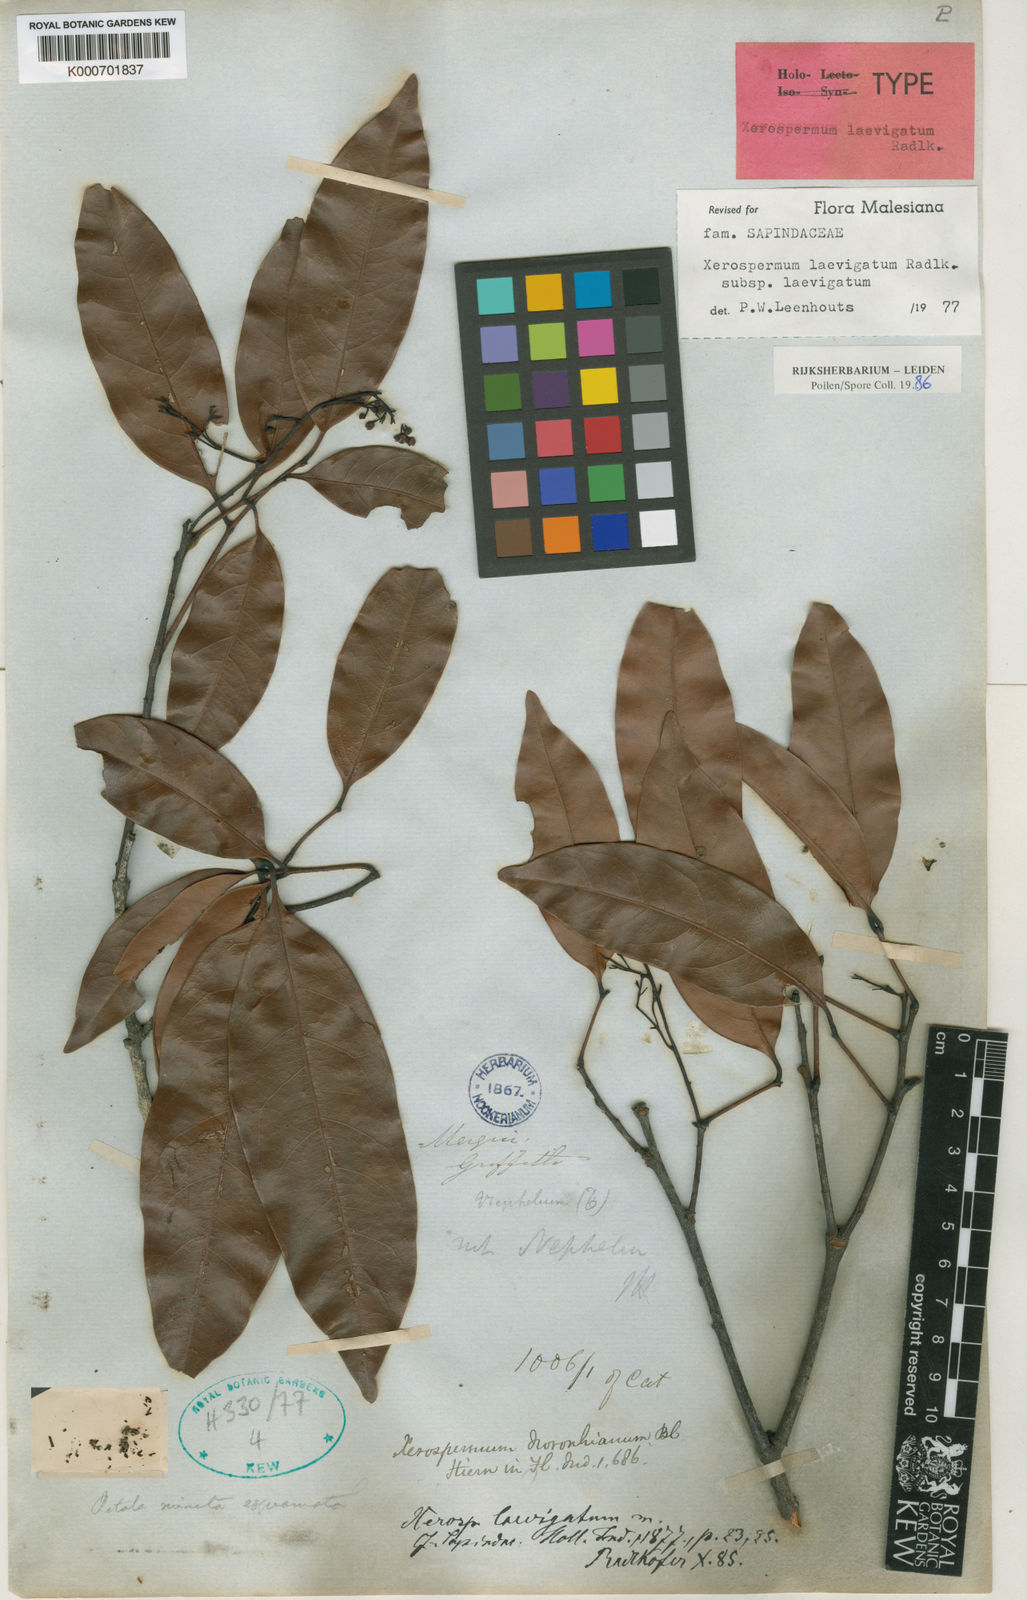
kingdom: Plantae
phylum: Tracheophyta
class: Magnoliopsida
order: Sapindales
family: Sapindaceae
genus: Xerospermum
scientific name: Xerospermum laevigatum
